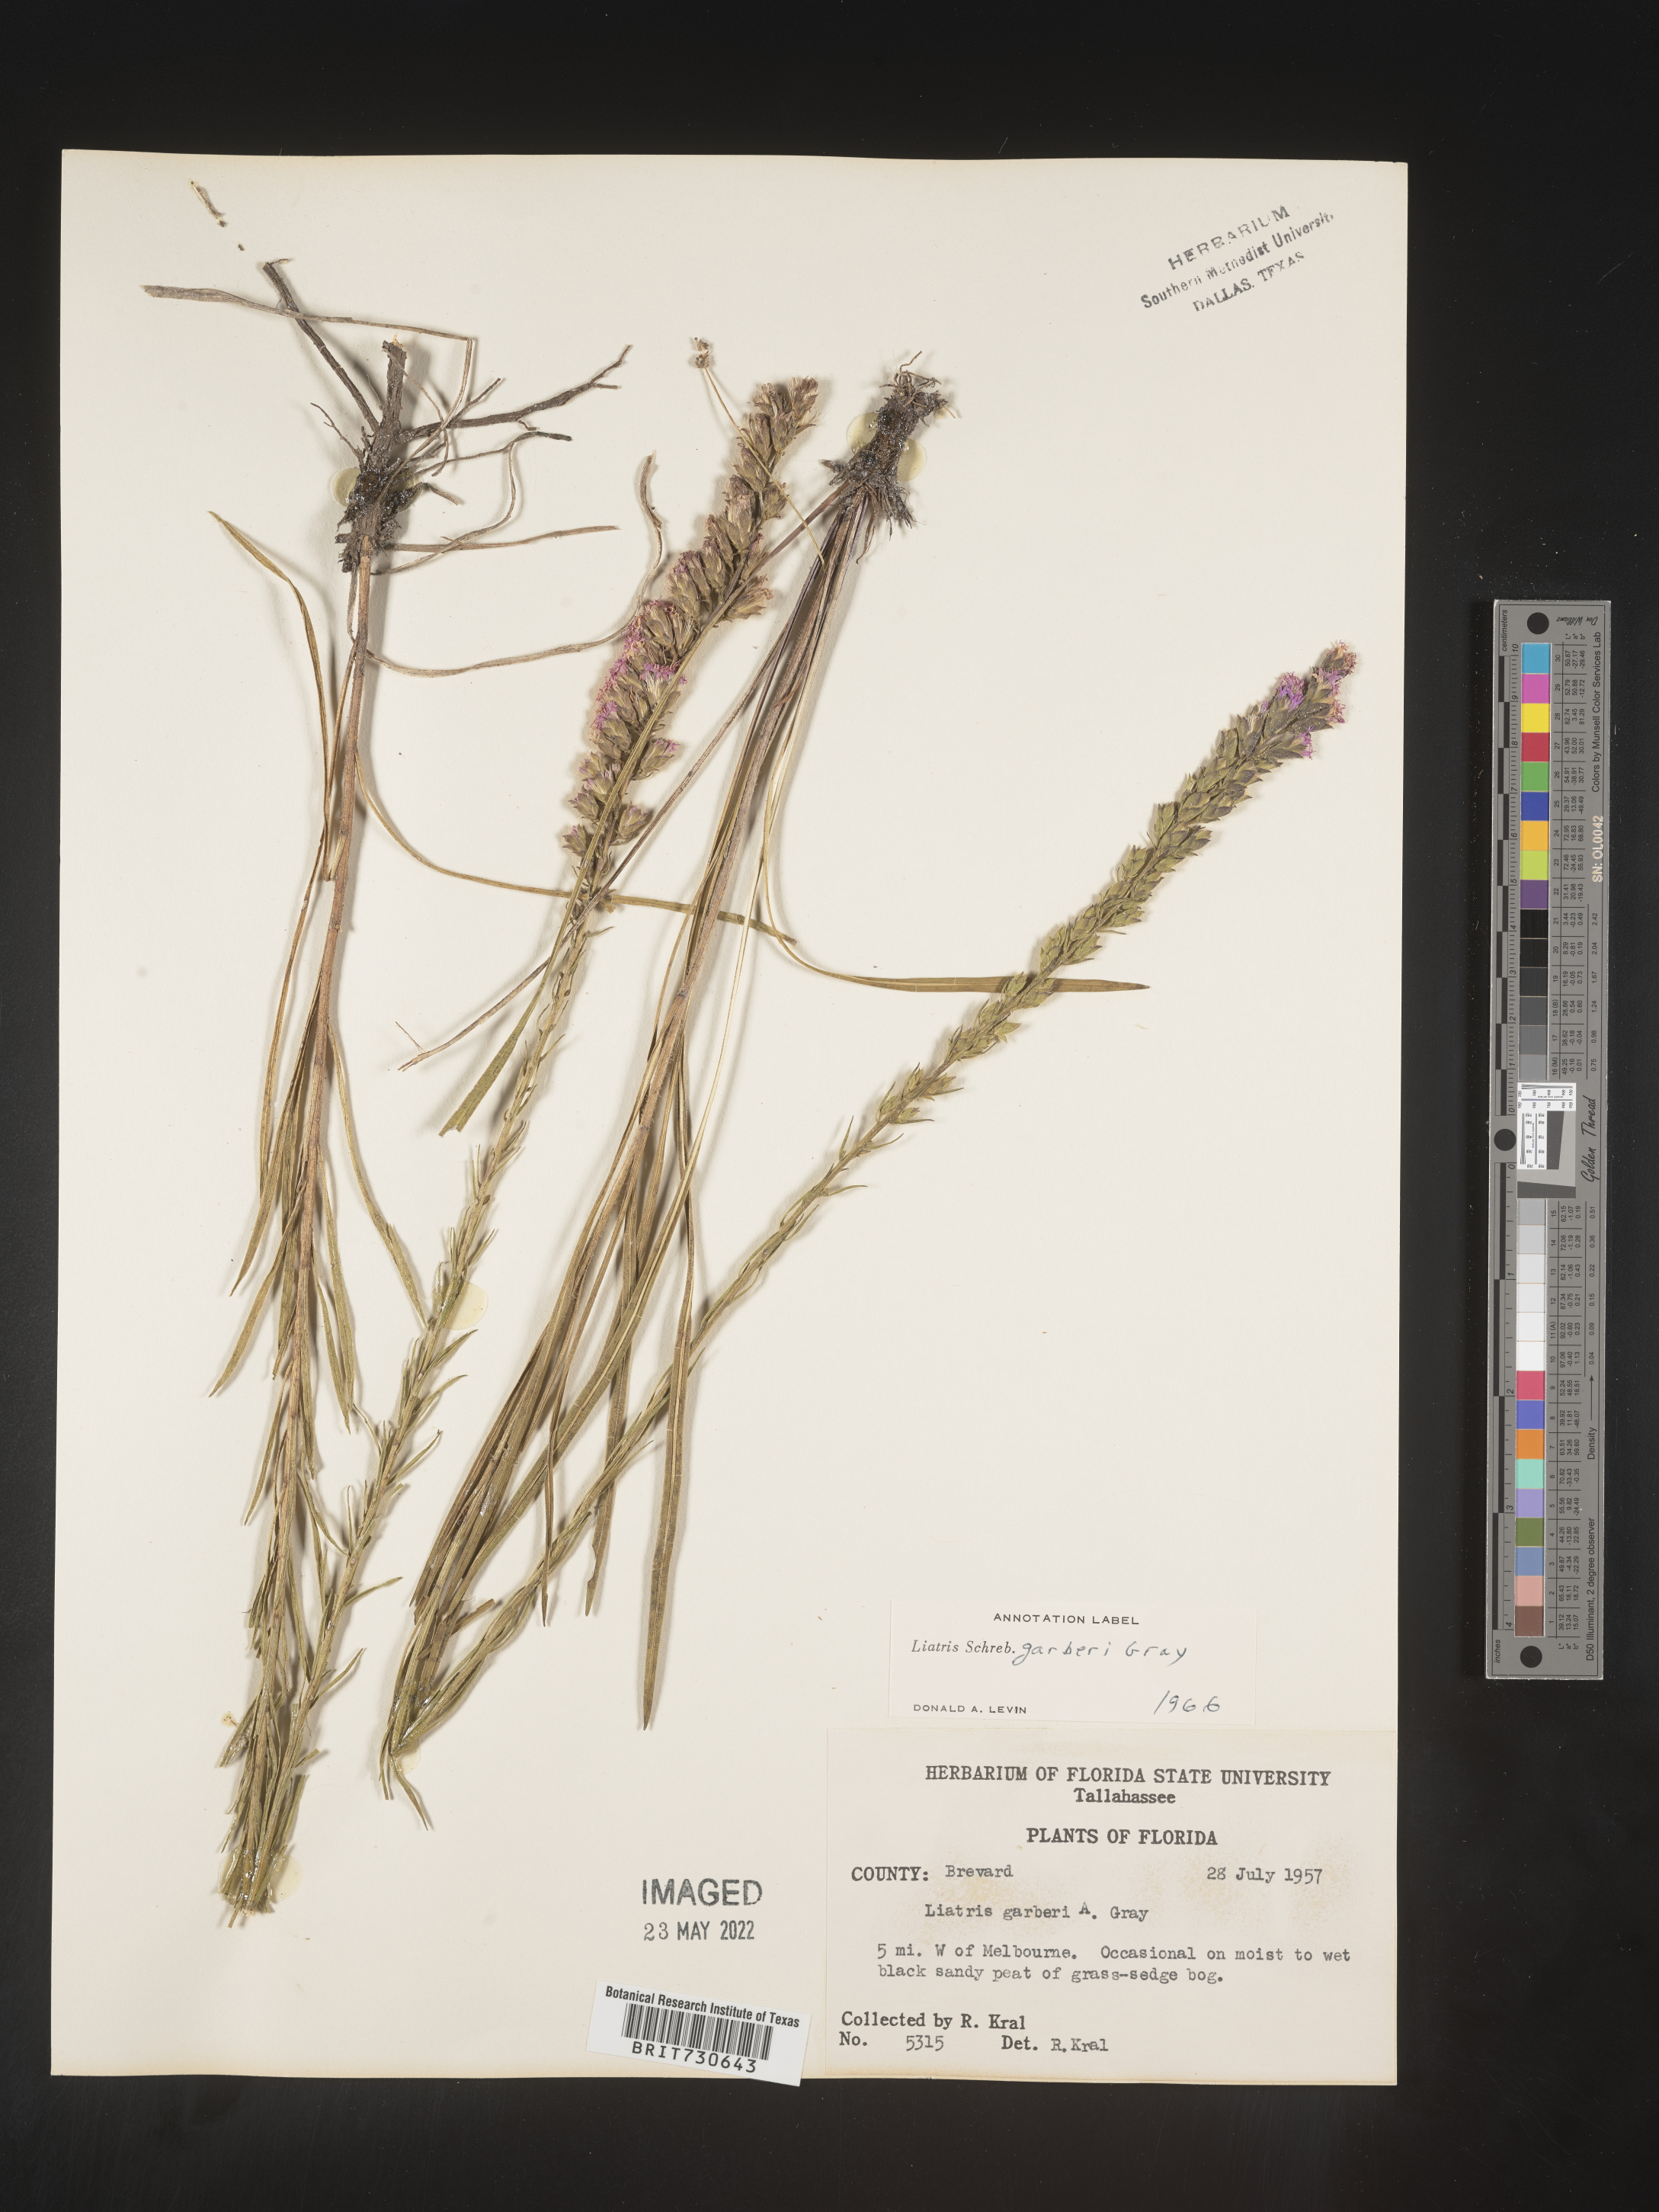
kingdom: Plantae
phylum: Tracheophyta
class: Magnoliopsida
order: Asterales
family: Asteraceae
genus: Liatris
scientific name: Liatris garberi
